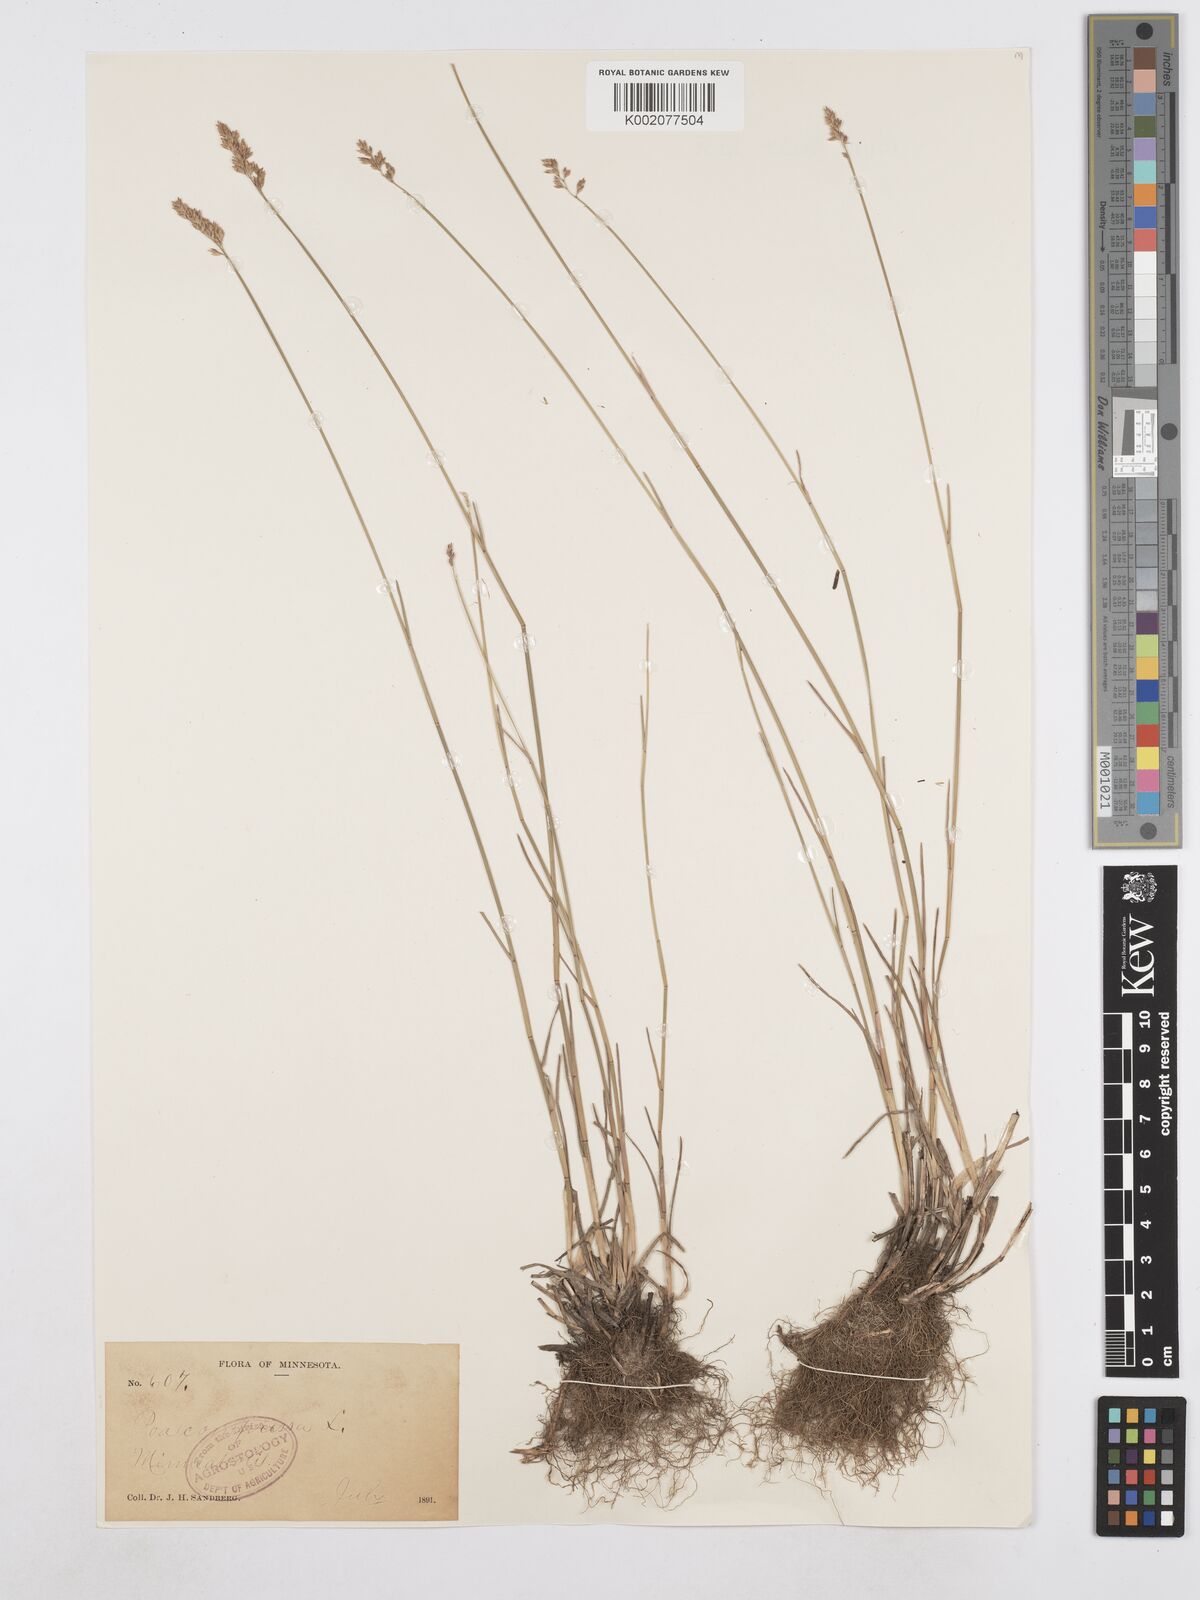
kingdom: Plantae
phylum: Tracheophyta
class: Liliopsida
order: Poales
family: Poaceae
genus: Poa
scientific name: Poa compressa
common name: Canada bluegrass
